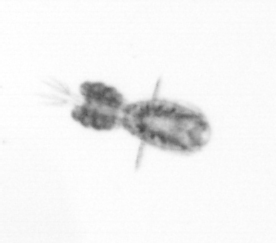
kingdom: Animalia
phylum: Arthropoda
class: Copepoda
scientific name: Copepoda
